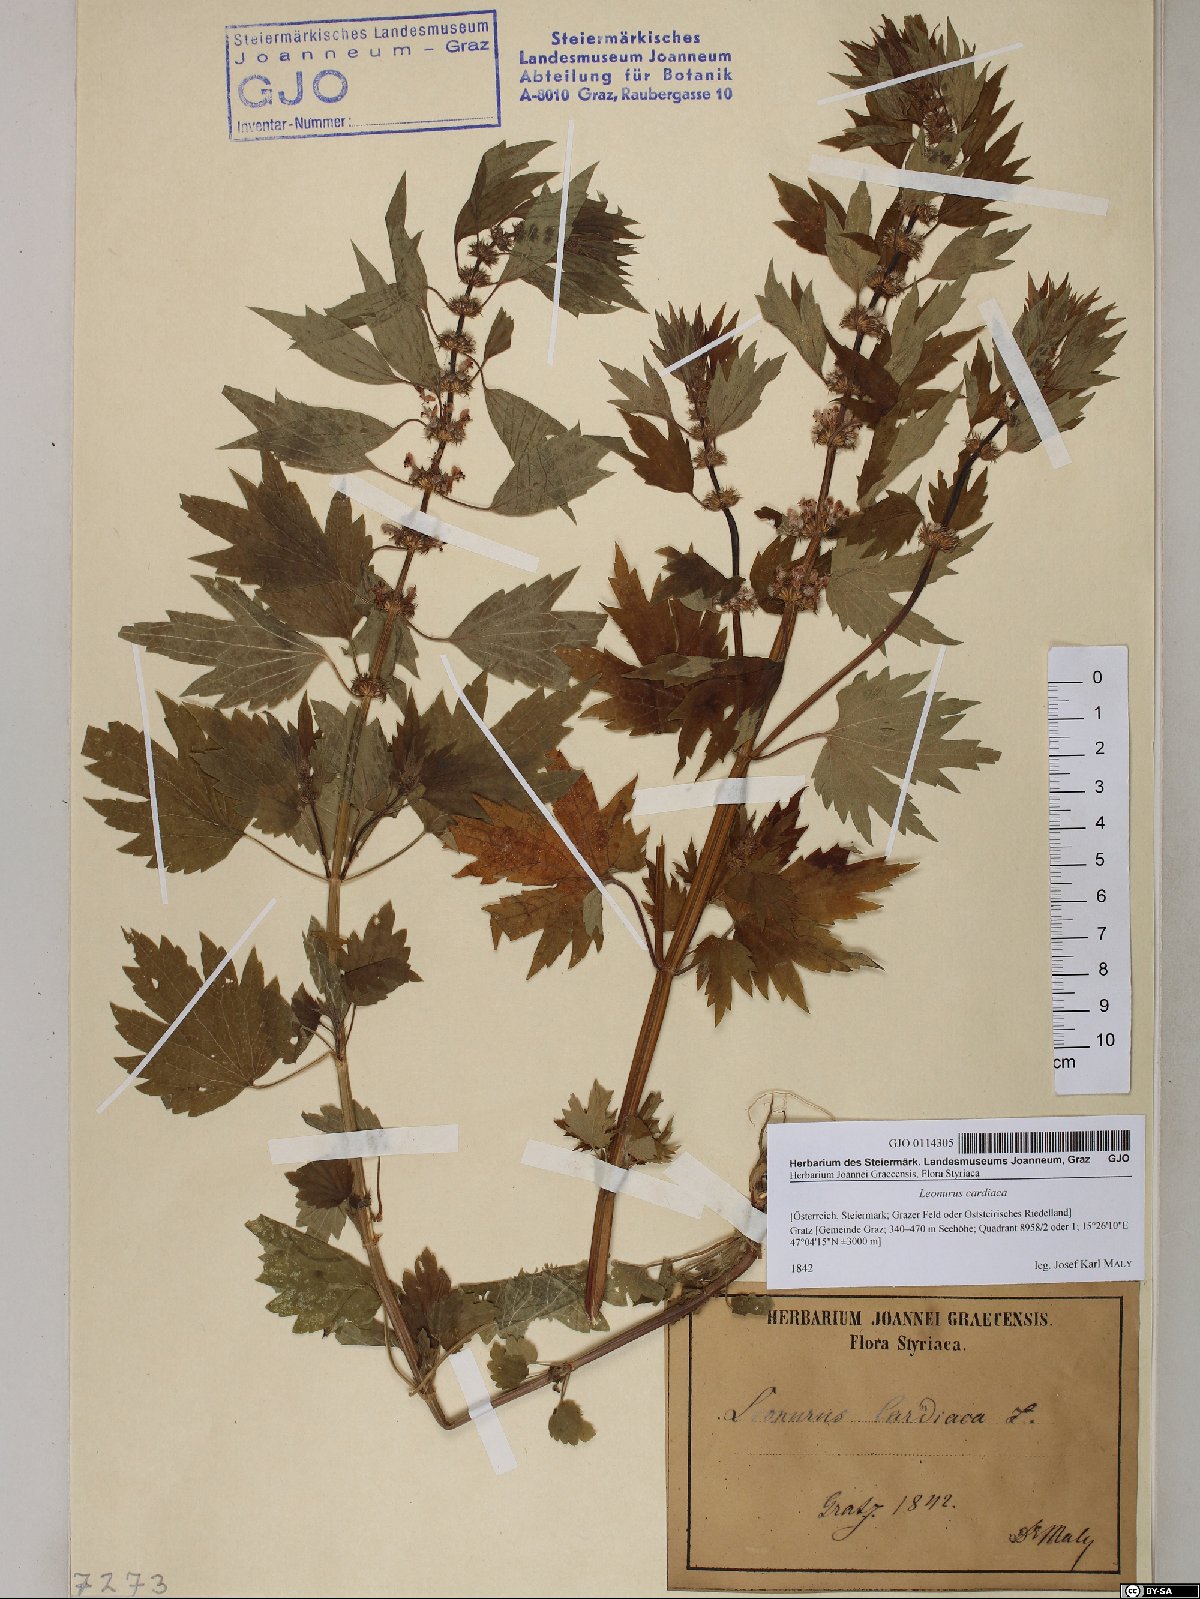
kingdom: Plantae
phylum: Tracheophyta
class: Magnoliopsida
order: Lamiales
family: Lamiaceae
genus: Leonurus
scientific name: Leonurus cardiaca
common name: Motherwort
